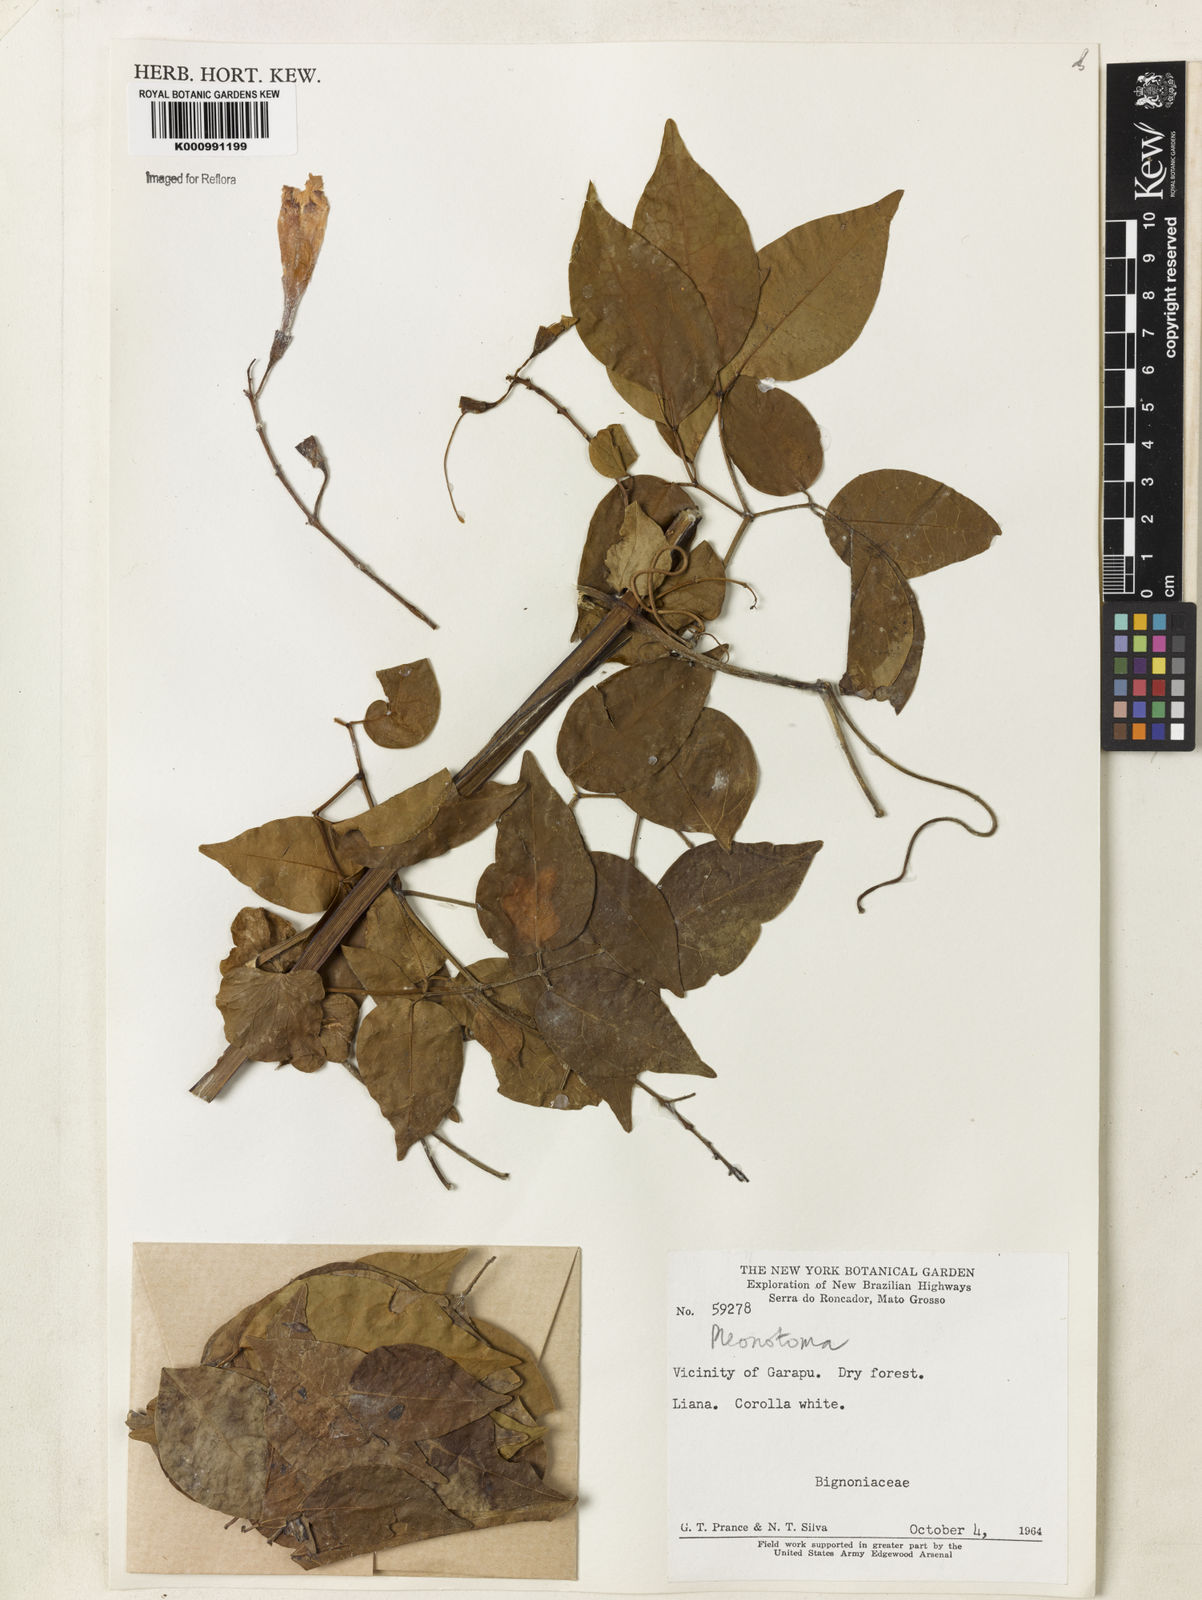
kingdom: Plantae
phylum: Tracheophyta
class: Magnoliopsida
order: Lamiales
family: Bignoniaceae
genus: Pleonotoma
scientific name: Pleonotoma
